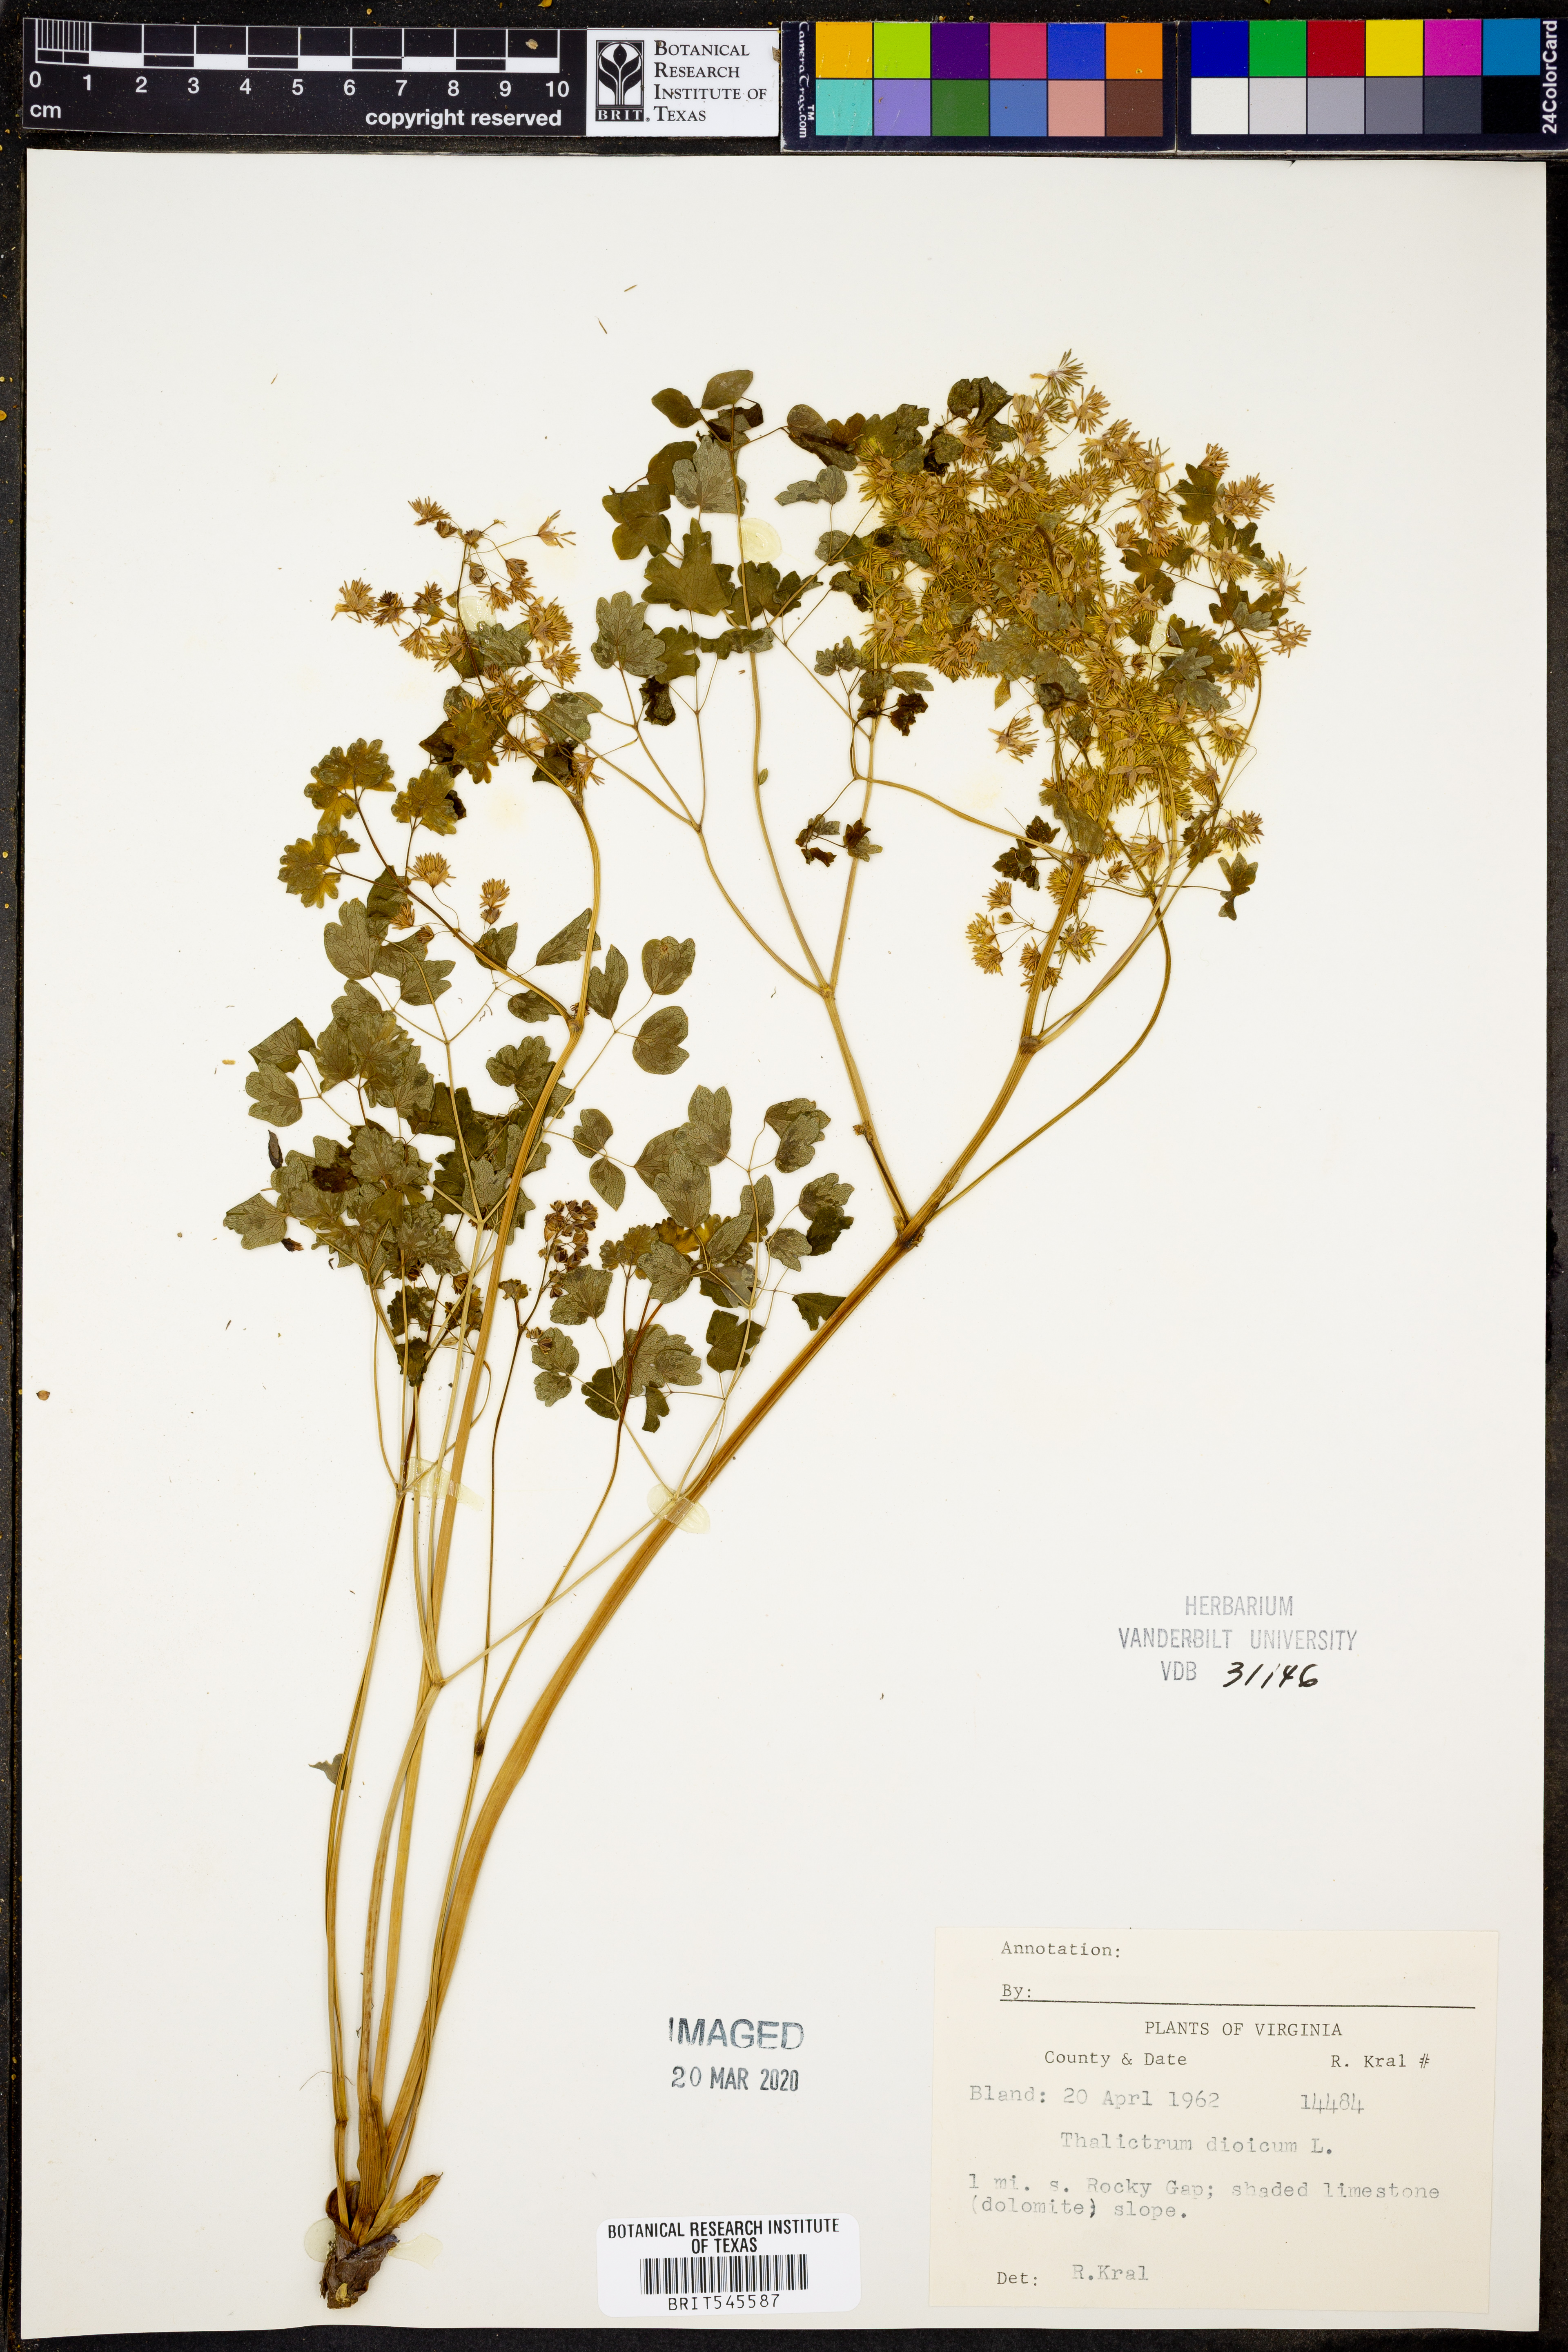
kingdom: Plantae
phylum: Tracheophyta
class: Magnoliopsida
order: Ranunculales
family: Ranunculaceae
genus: Thalictrum
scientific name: Thalictrum dioicum
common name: Early meadow-rue
